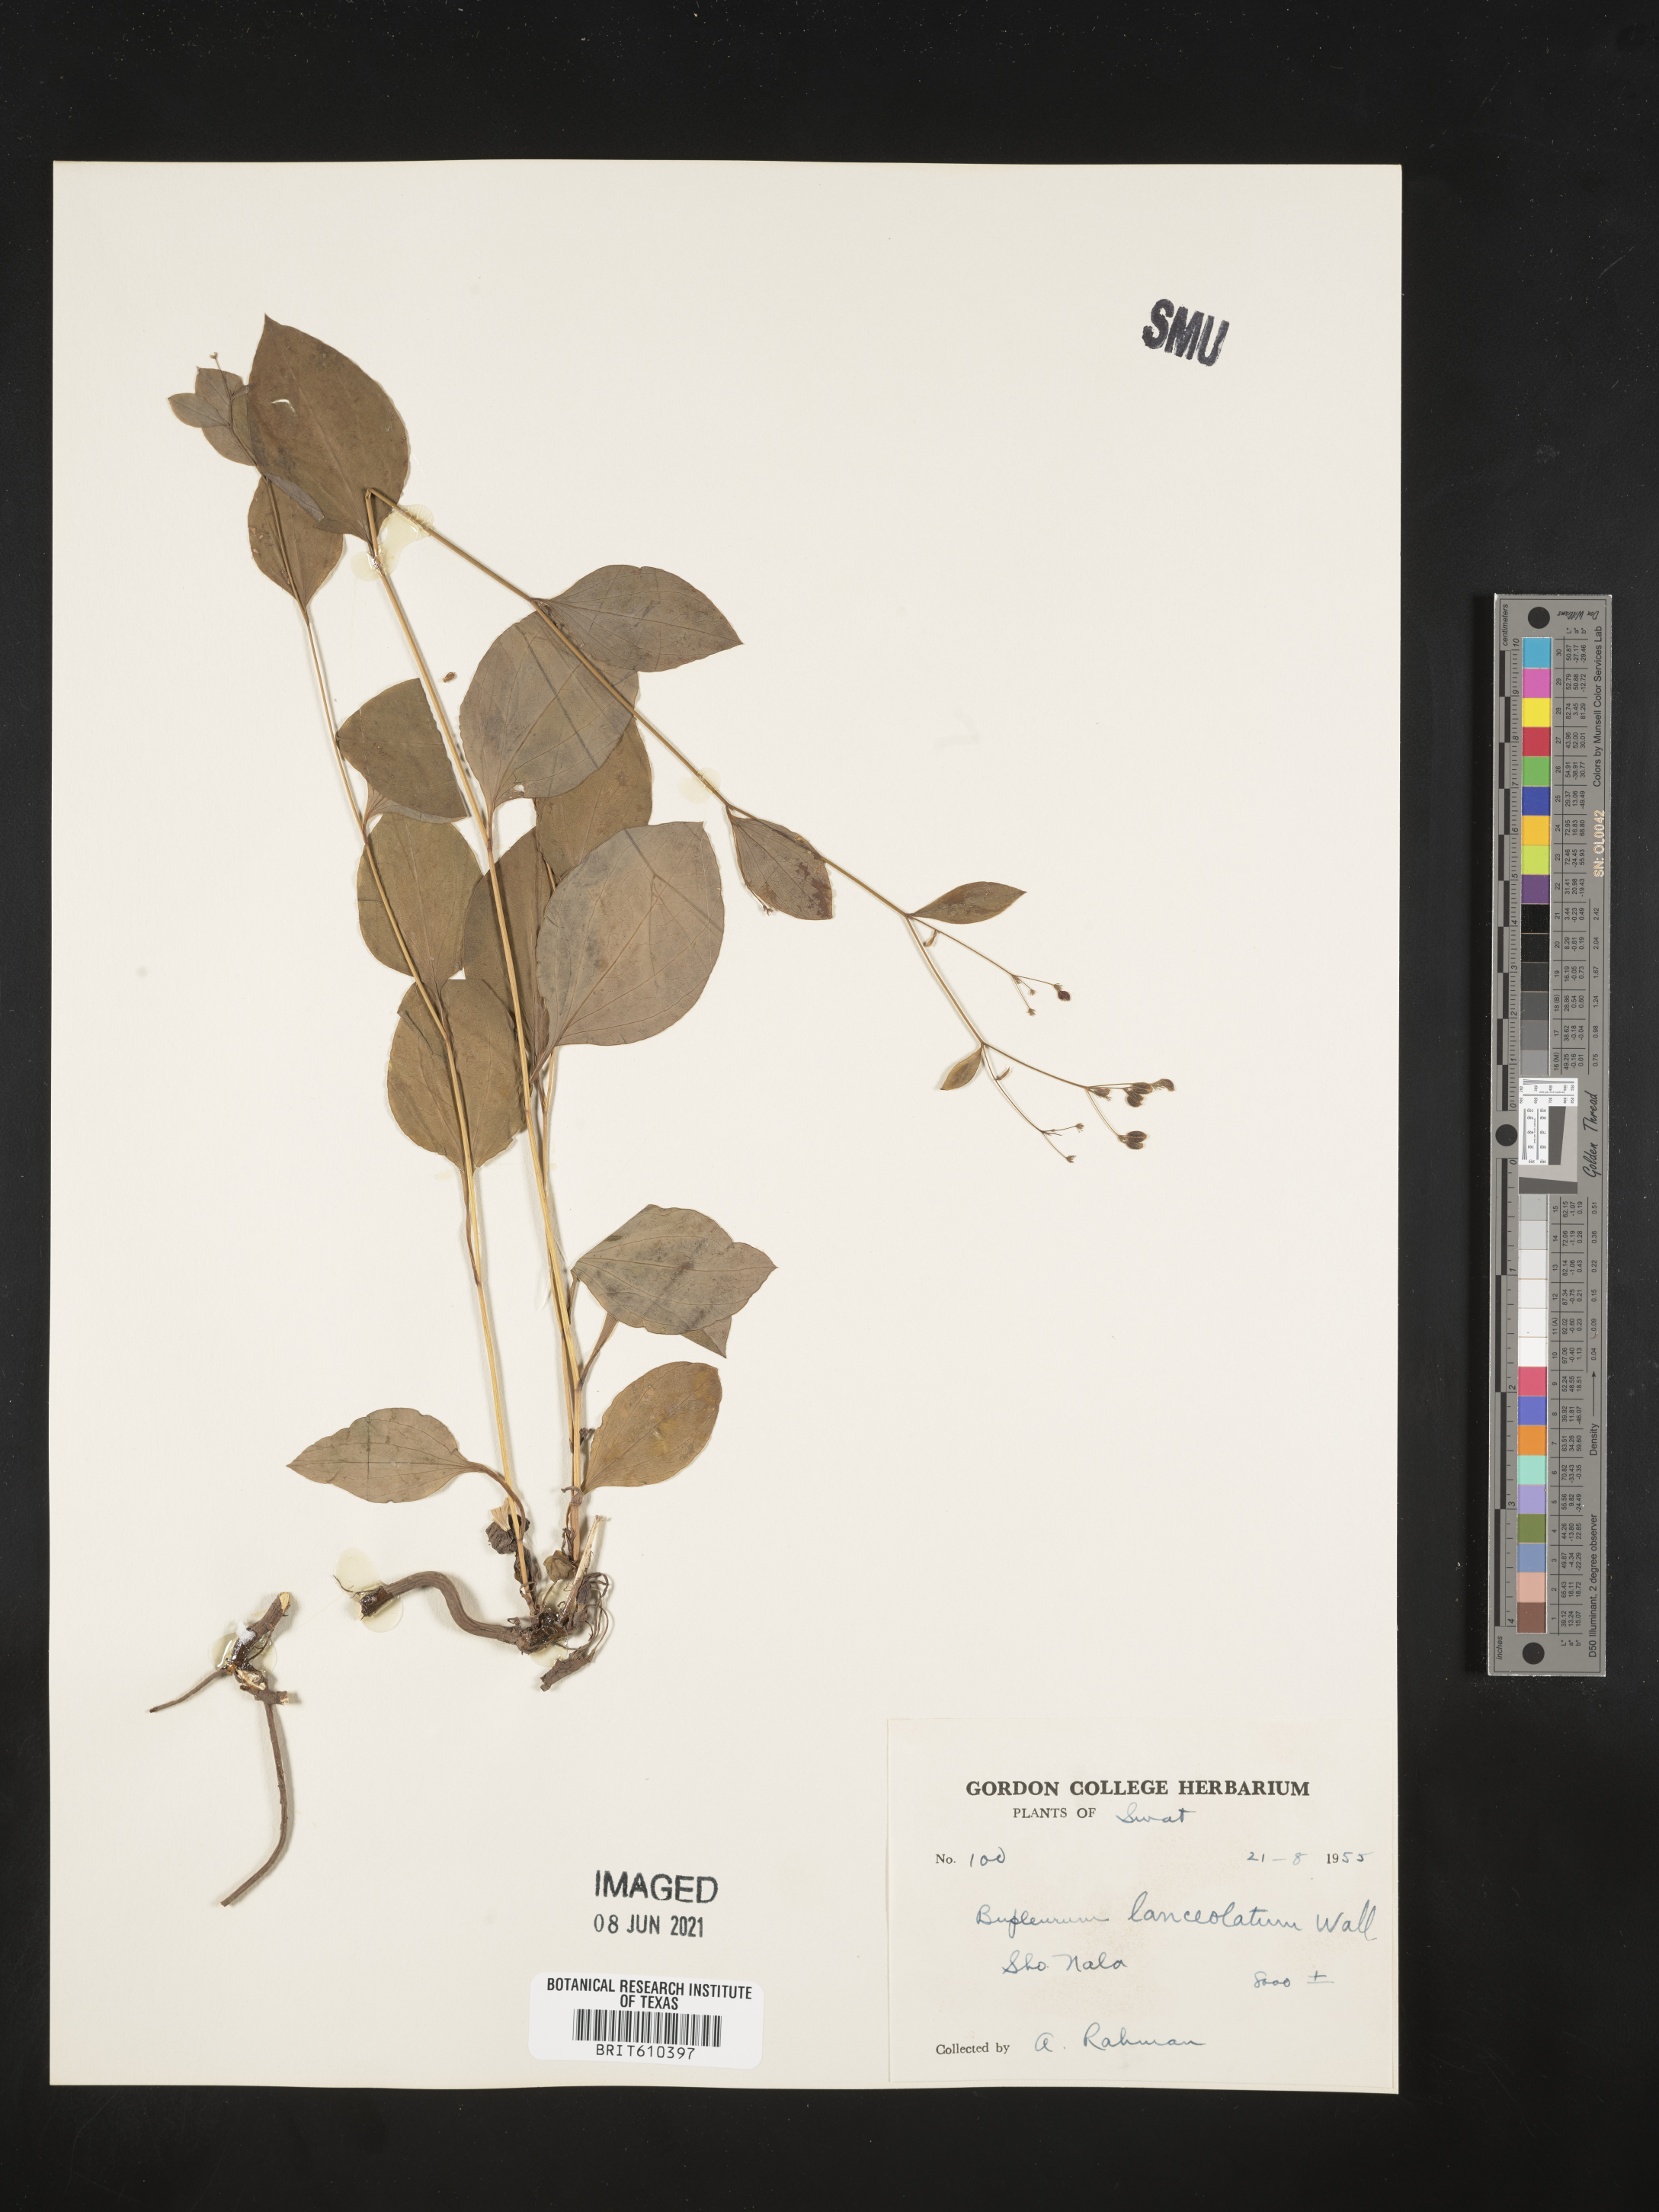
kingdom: Plantae
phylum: Tracheophyta
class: Magnoliopsida
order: Apiales
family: Apiaceae
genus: Bupleurum
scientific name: Bupleurum lanceolatum
